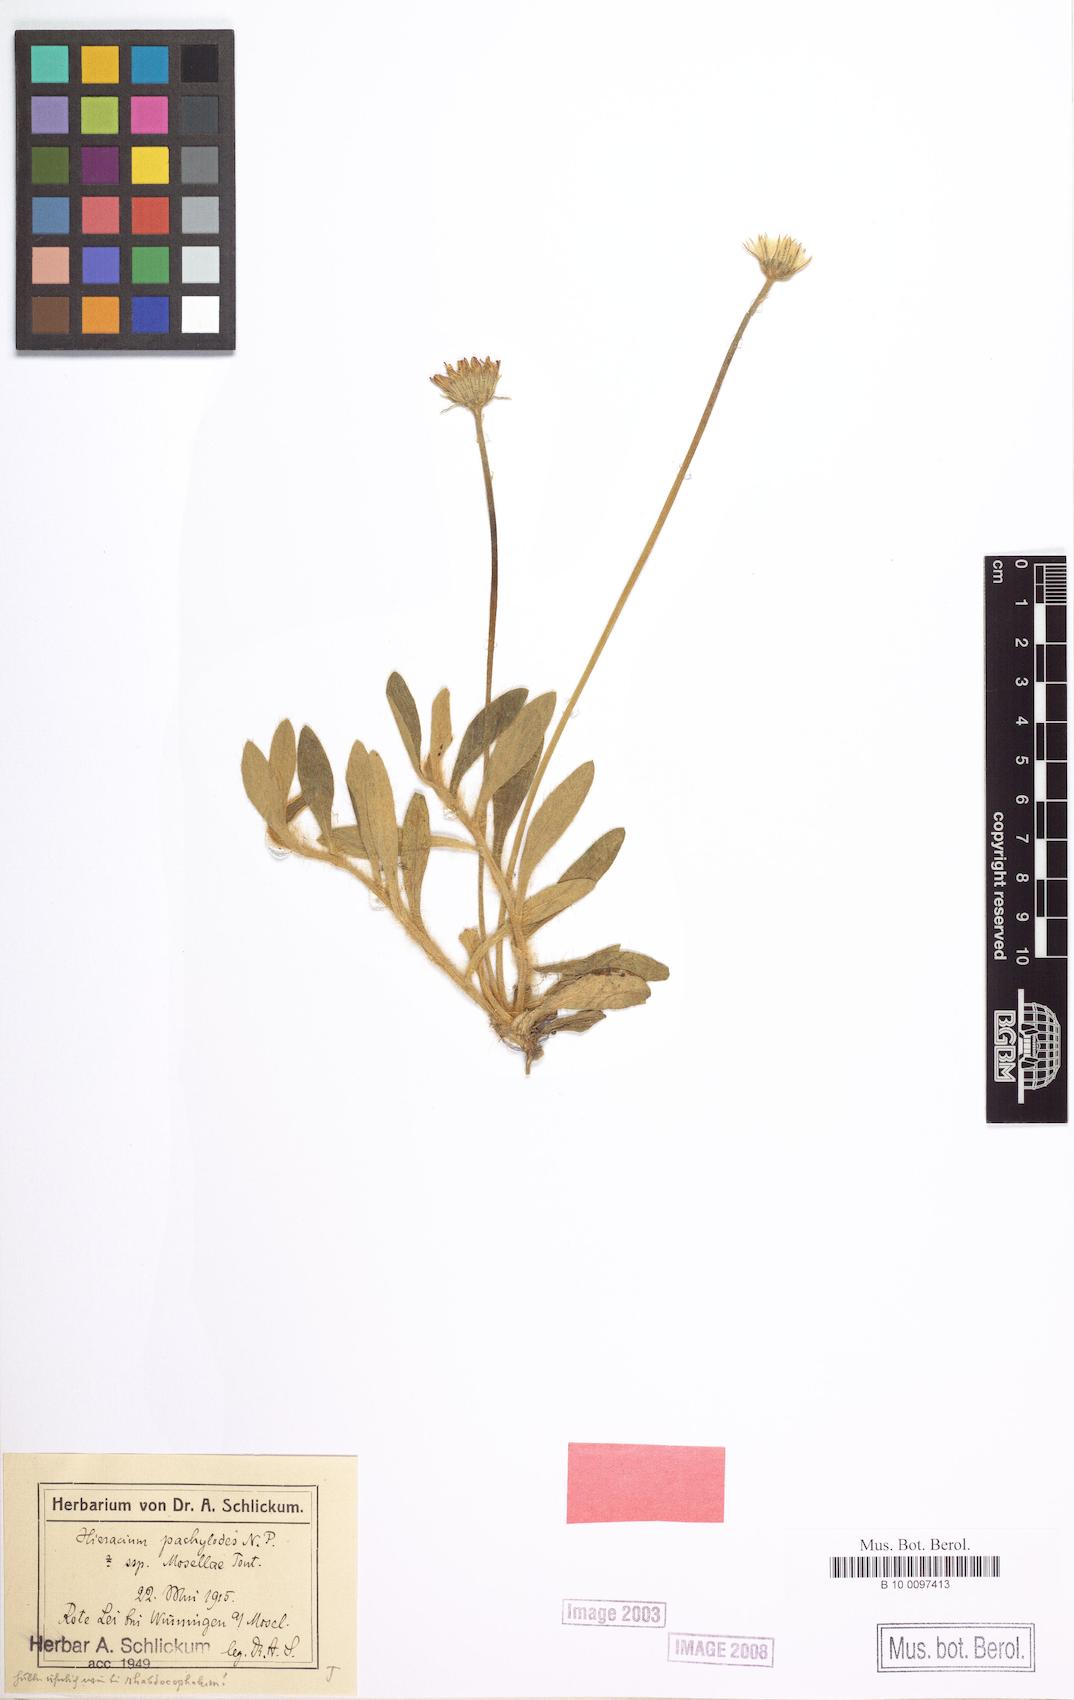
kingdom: Plantae
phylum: Tracheophyta
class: Magnoliopsida
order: Asterales
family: Asteraceae
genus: Pilosella
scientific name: Pilosella longisquama
